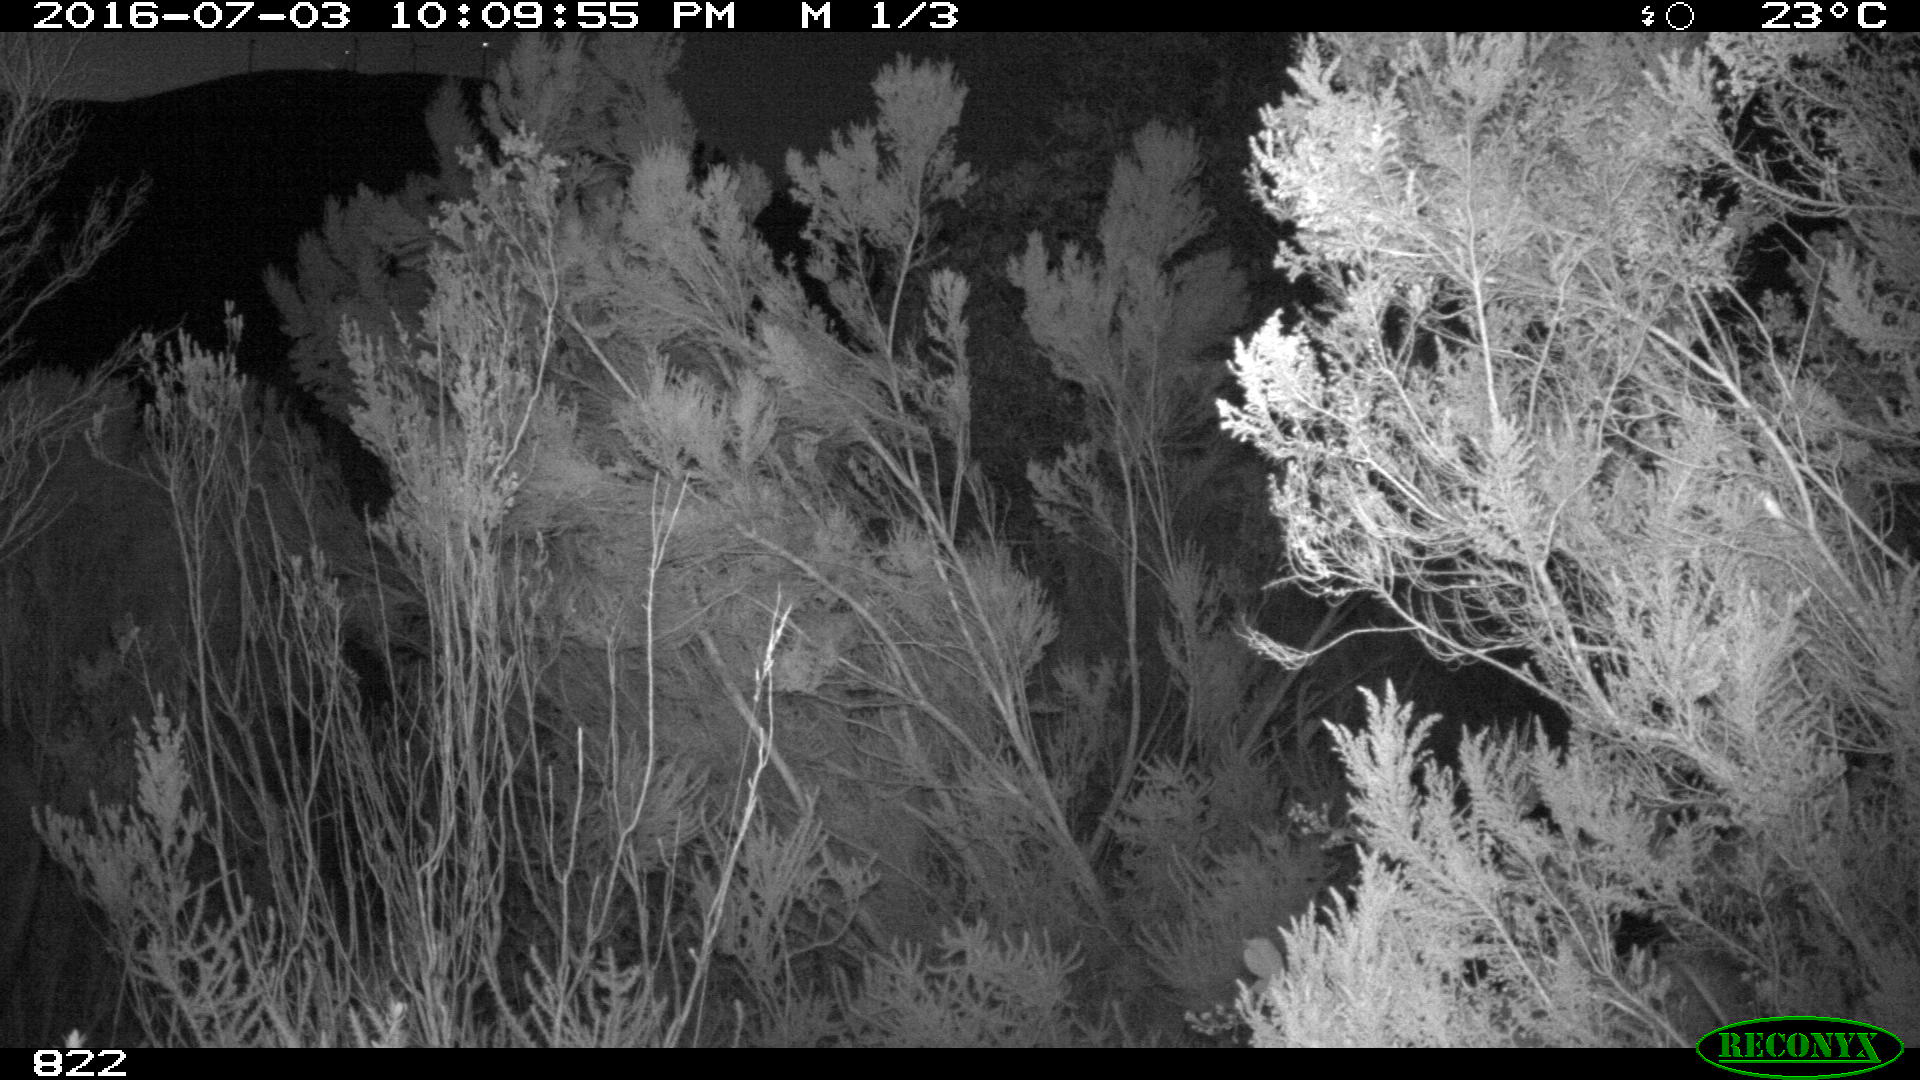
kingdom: Animalia
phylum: Chordata
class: Mammalia
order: Perissodactyla
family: Equidae
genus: Equus
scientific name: Equus caballus
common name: Horse
